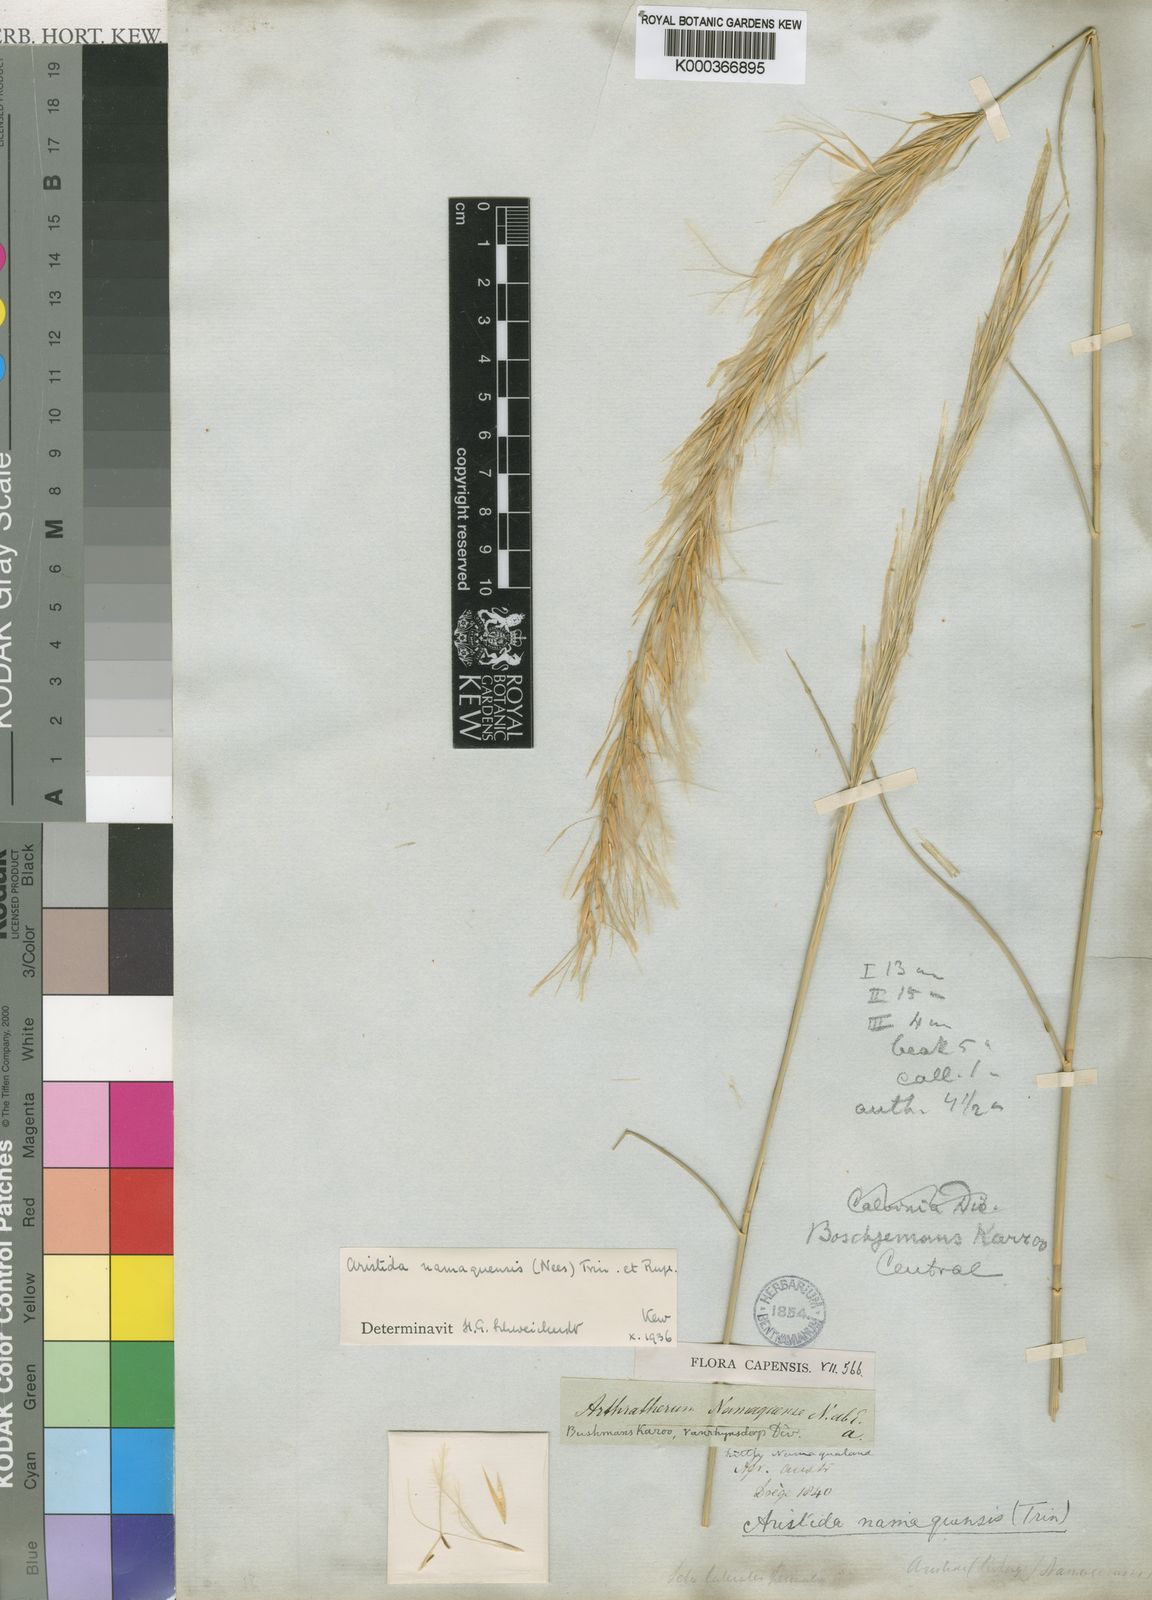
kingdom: Plantae
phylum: Tracheophyta
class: Liliopsida
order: Poales
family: Poaceae
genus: Stipagrostis
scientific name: Stipagrostis namaquensis
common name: River bushman grass
